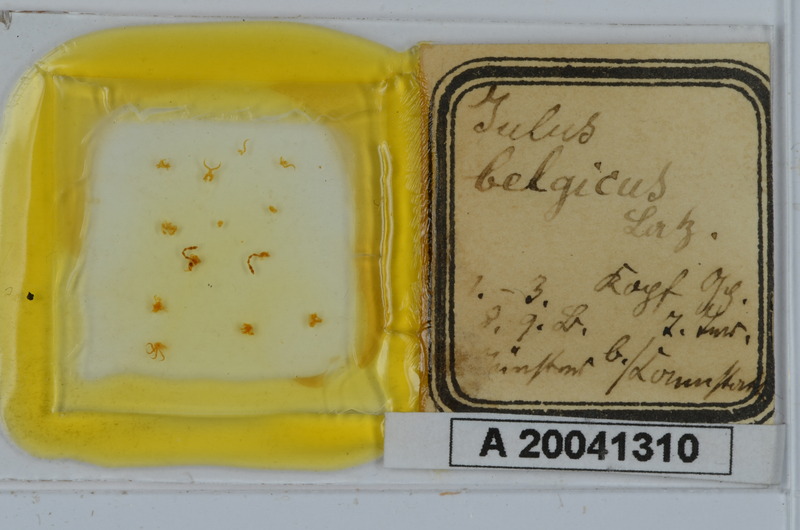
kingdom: Animalia
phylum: Arthropoda
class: Diplopoda
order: Julida
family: Julidae
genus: Leptoiulus
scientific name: Leptoiulus belgicus
